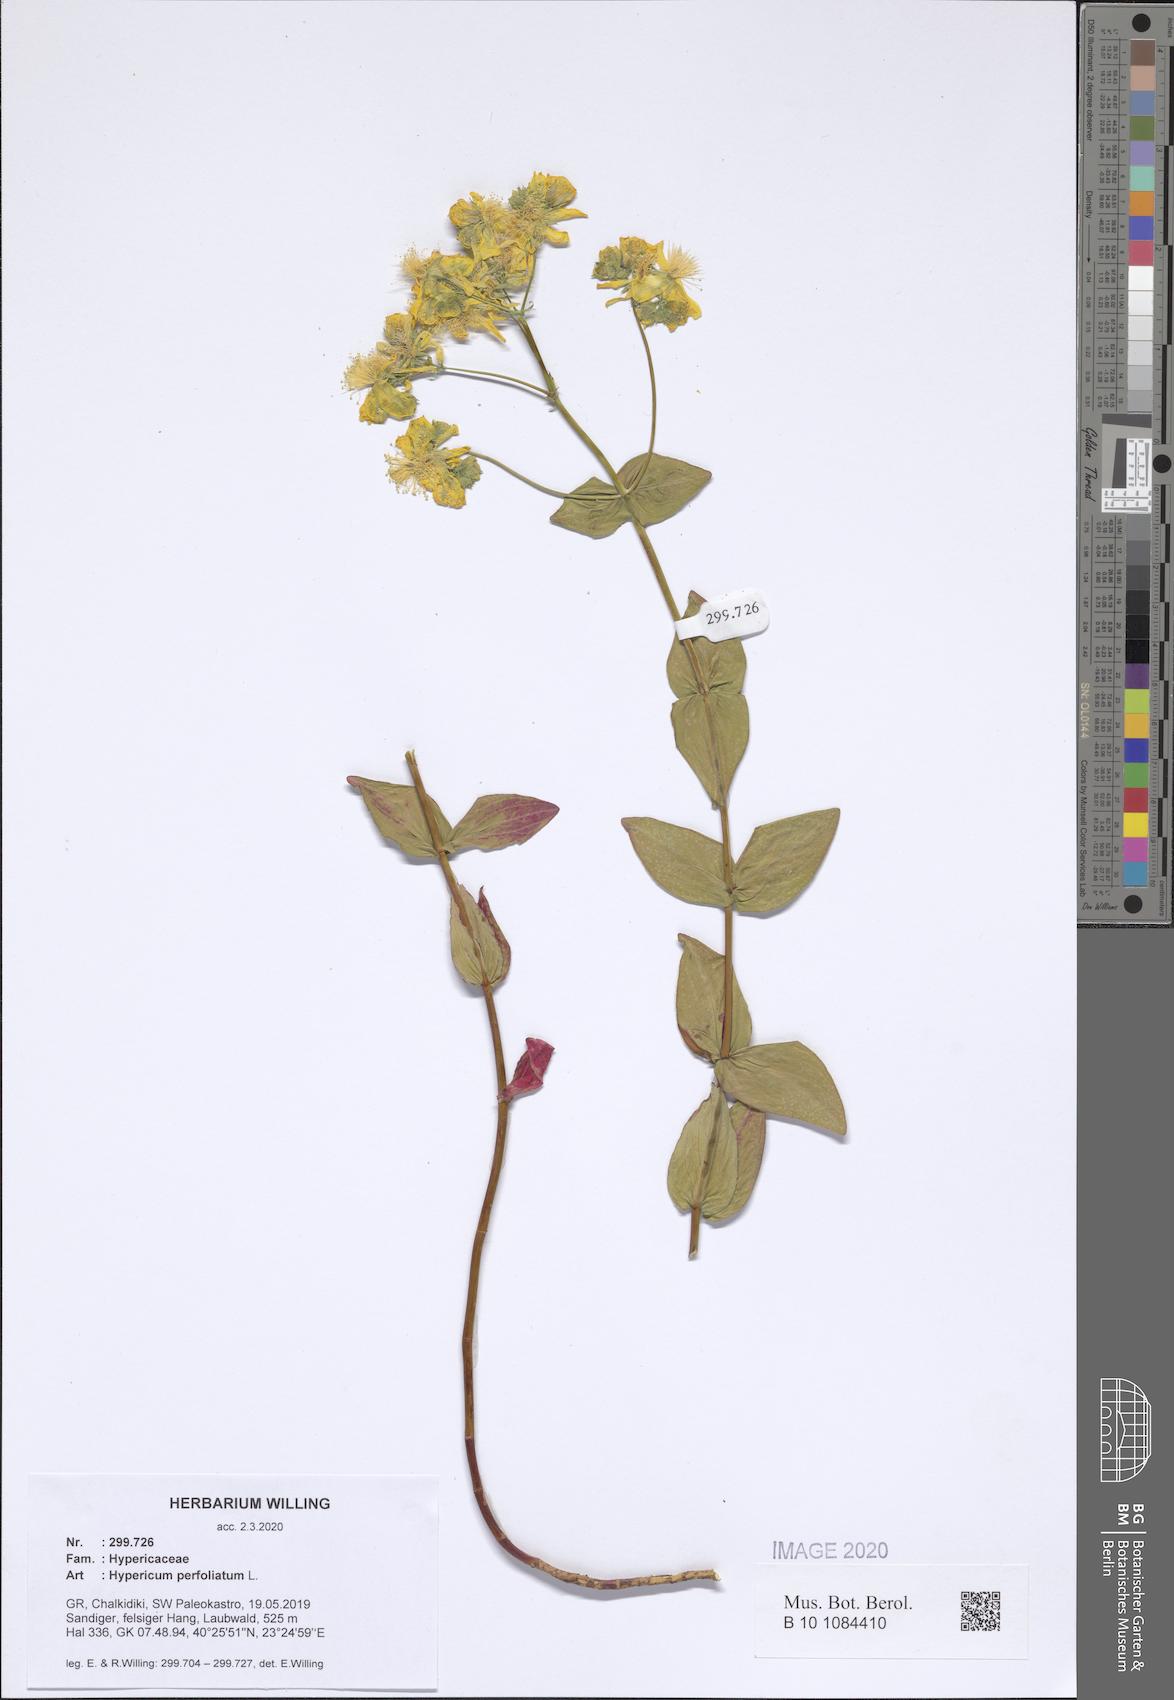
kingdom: Plantae
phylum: Tracheophyta
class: Magnoliopsida
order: Malpighiales
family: Hypericaceae
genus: Hypericum
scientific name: Hypericum perfoliatum
